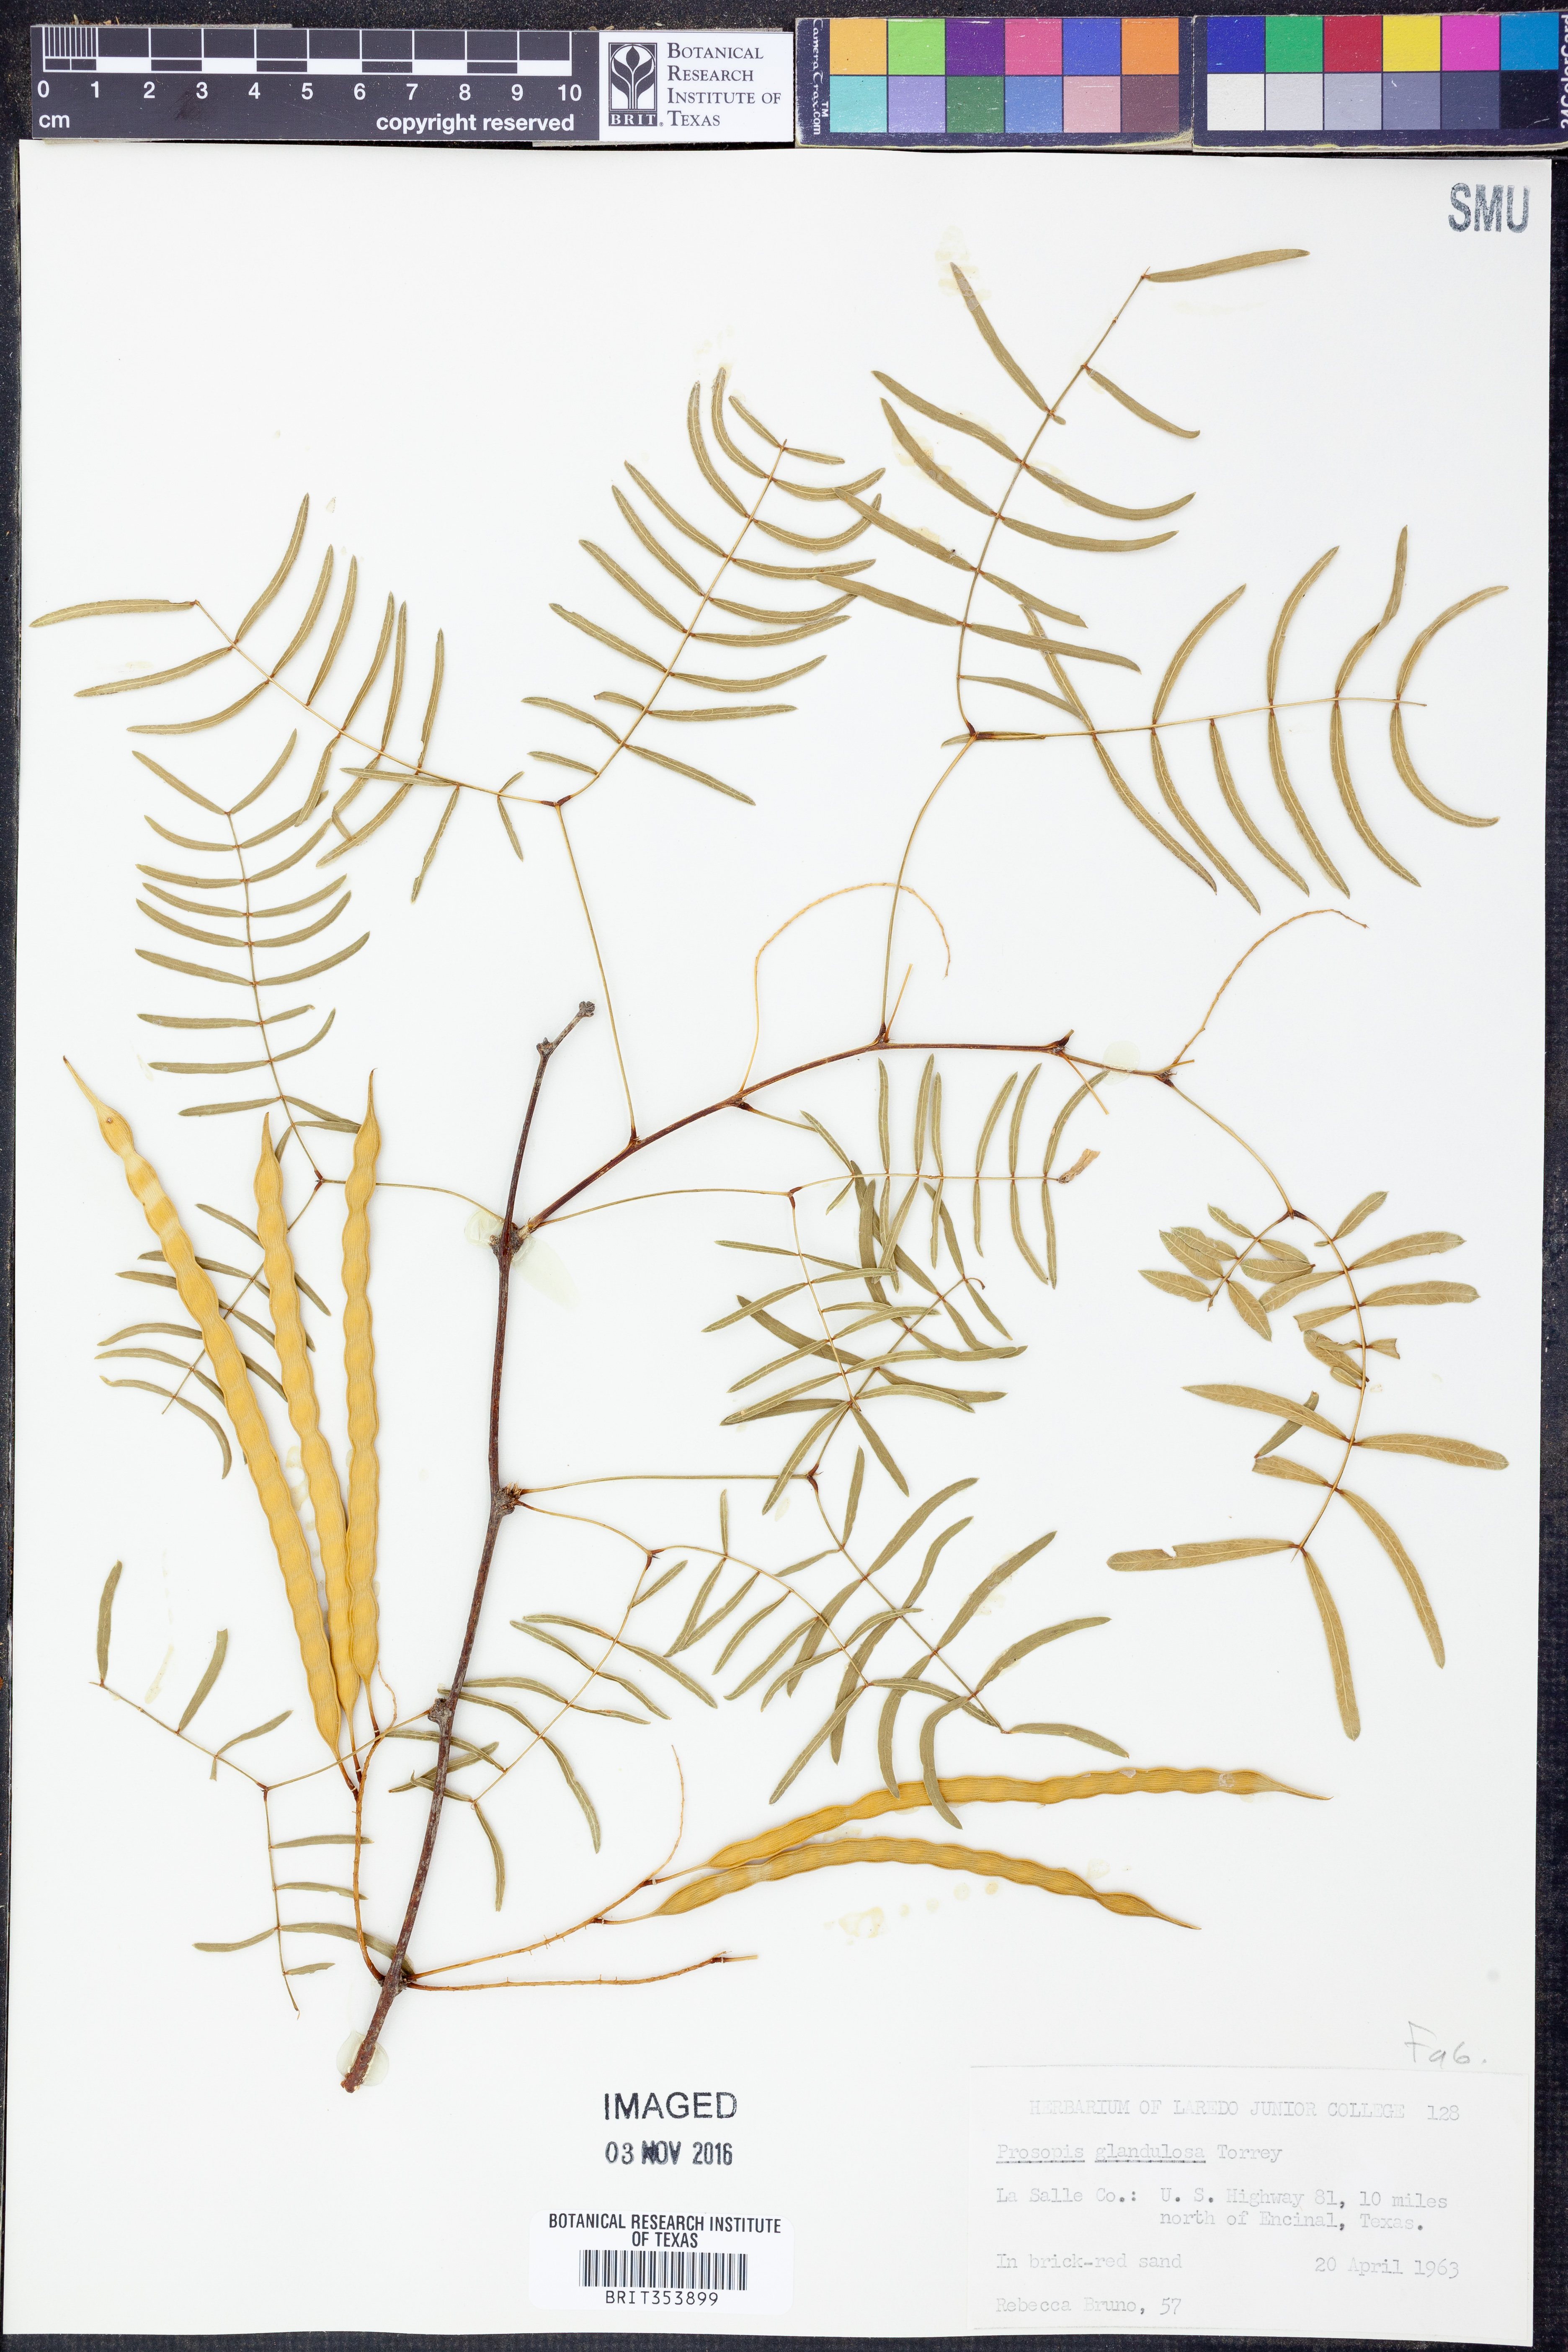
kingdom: Plantae
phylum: Tracheophyta
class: Magnoliopsida
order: Fabales
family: Fabaceae
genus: Prosopis
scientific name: Prosopis glandulosa
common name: Honey mesquite
